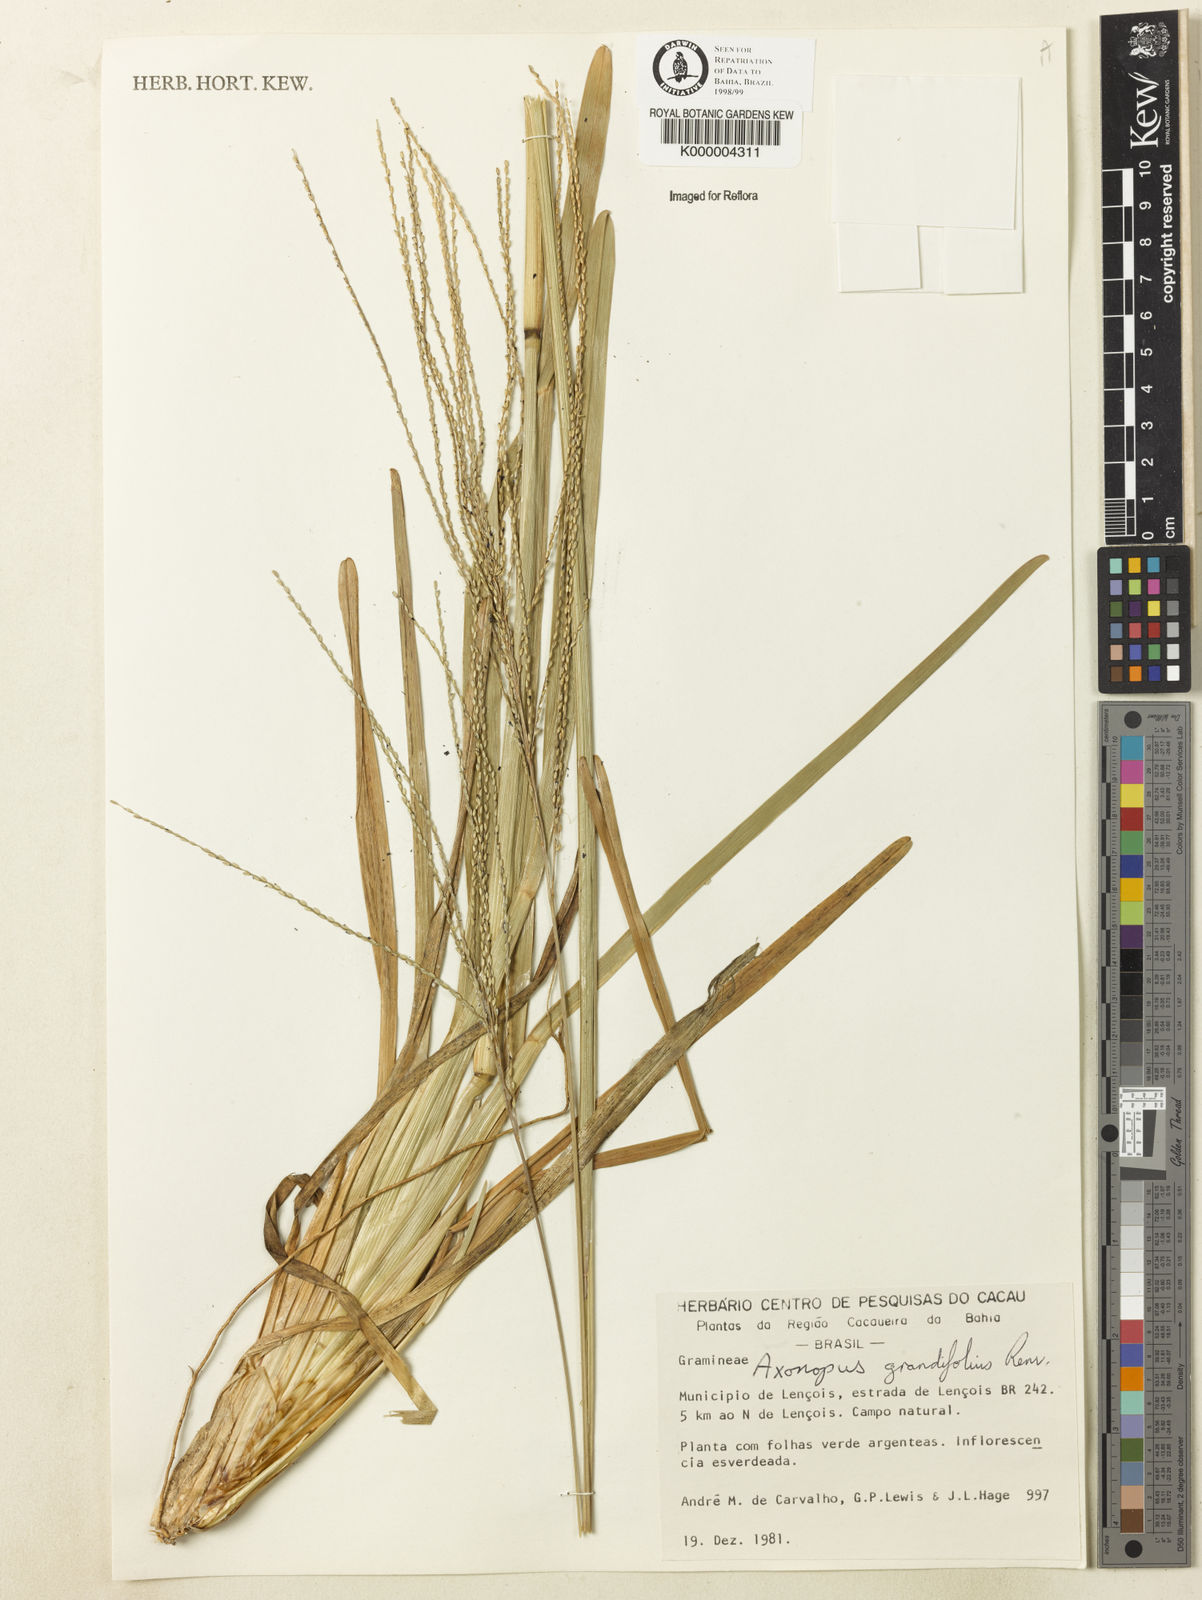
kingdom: Plantae
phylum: Tracheophyta
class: Liliopsida
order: Poales
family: Poaceae
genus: Axonopus
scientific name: Axonopus grandifolius
